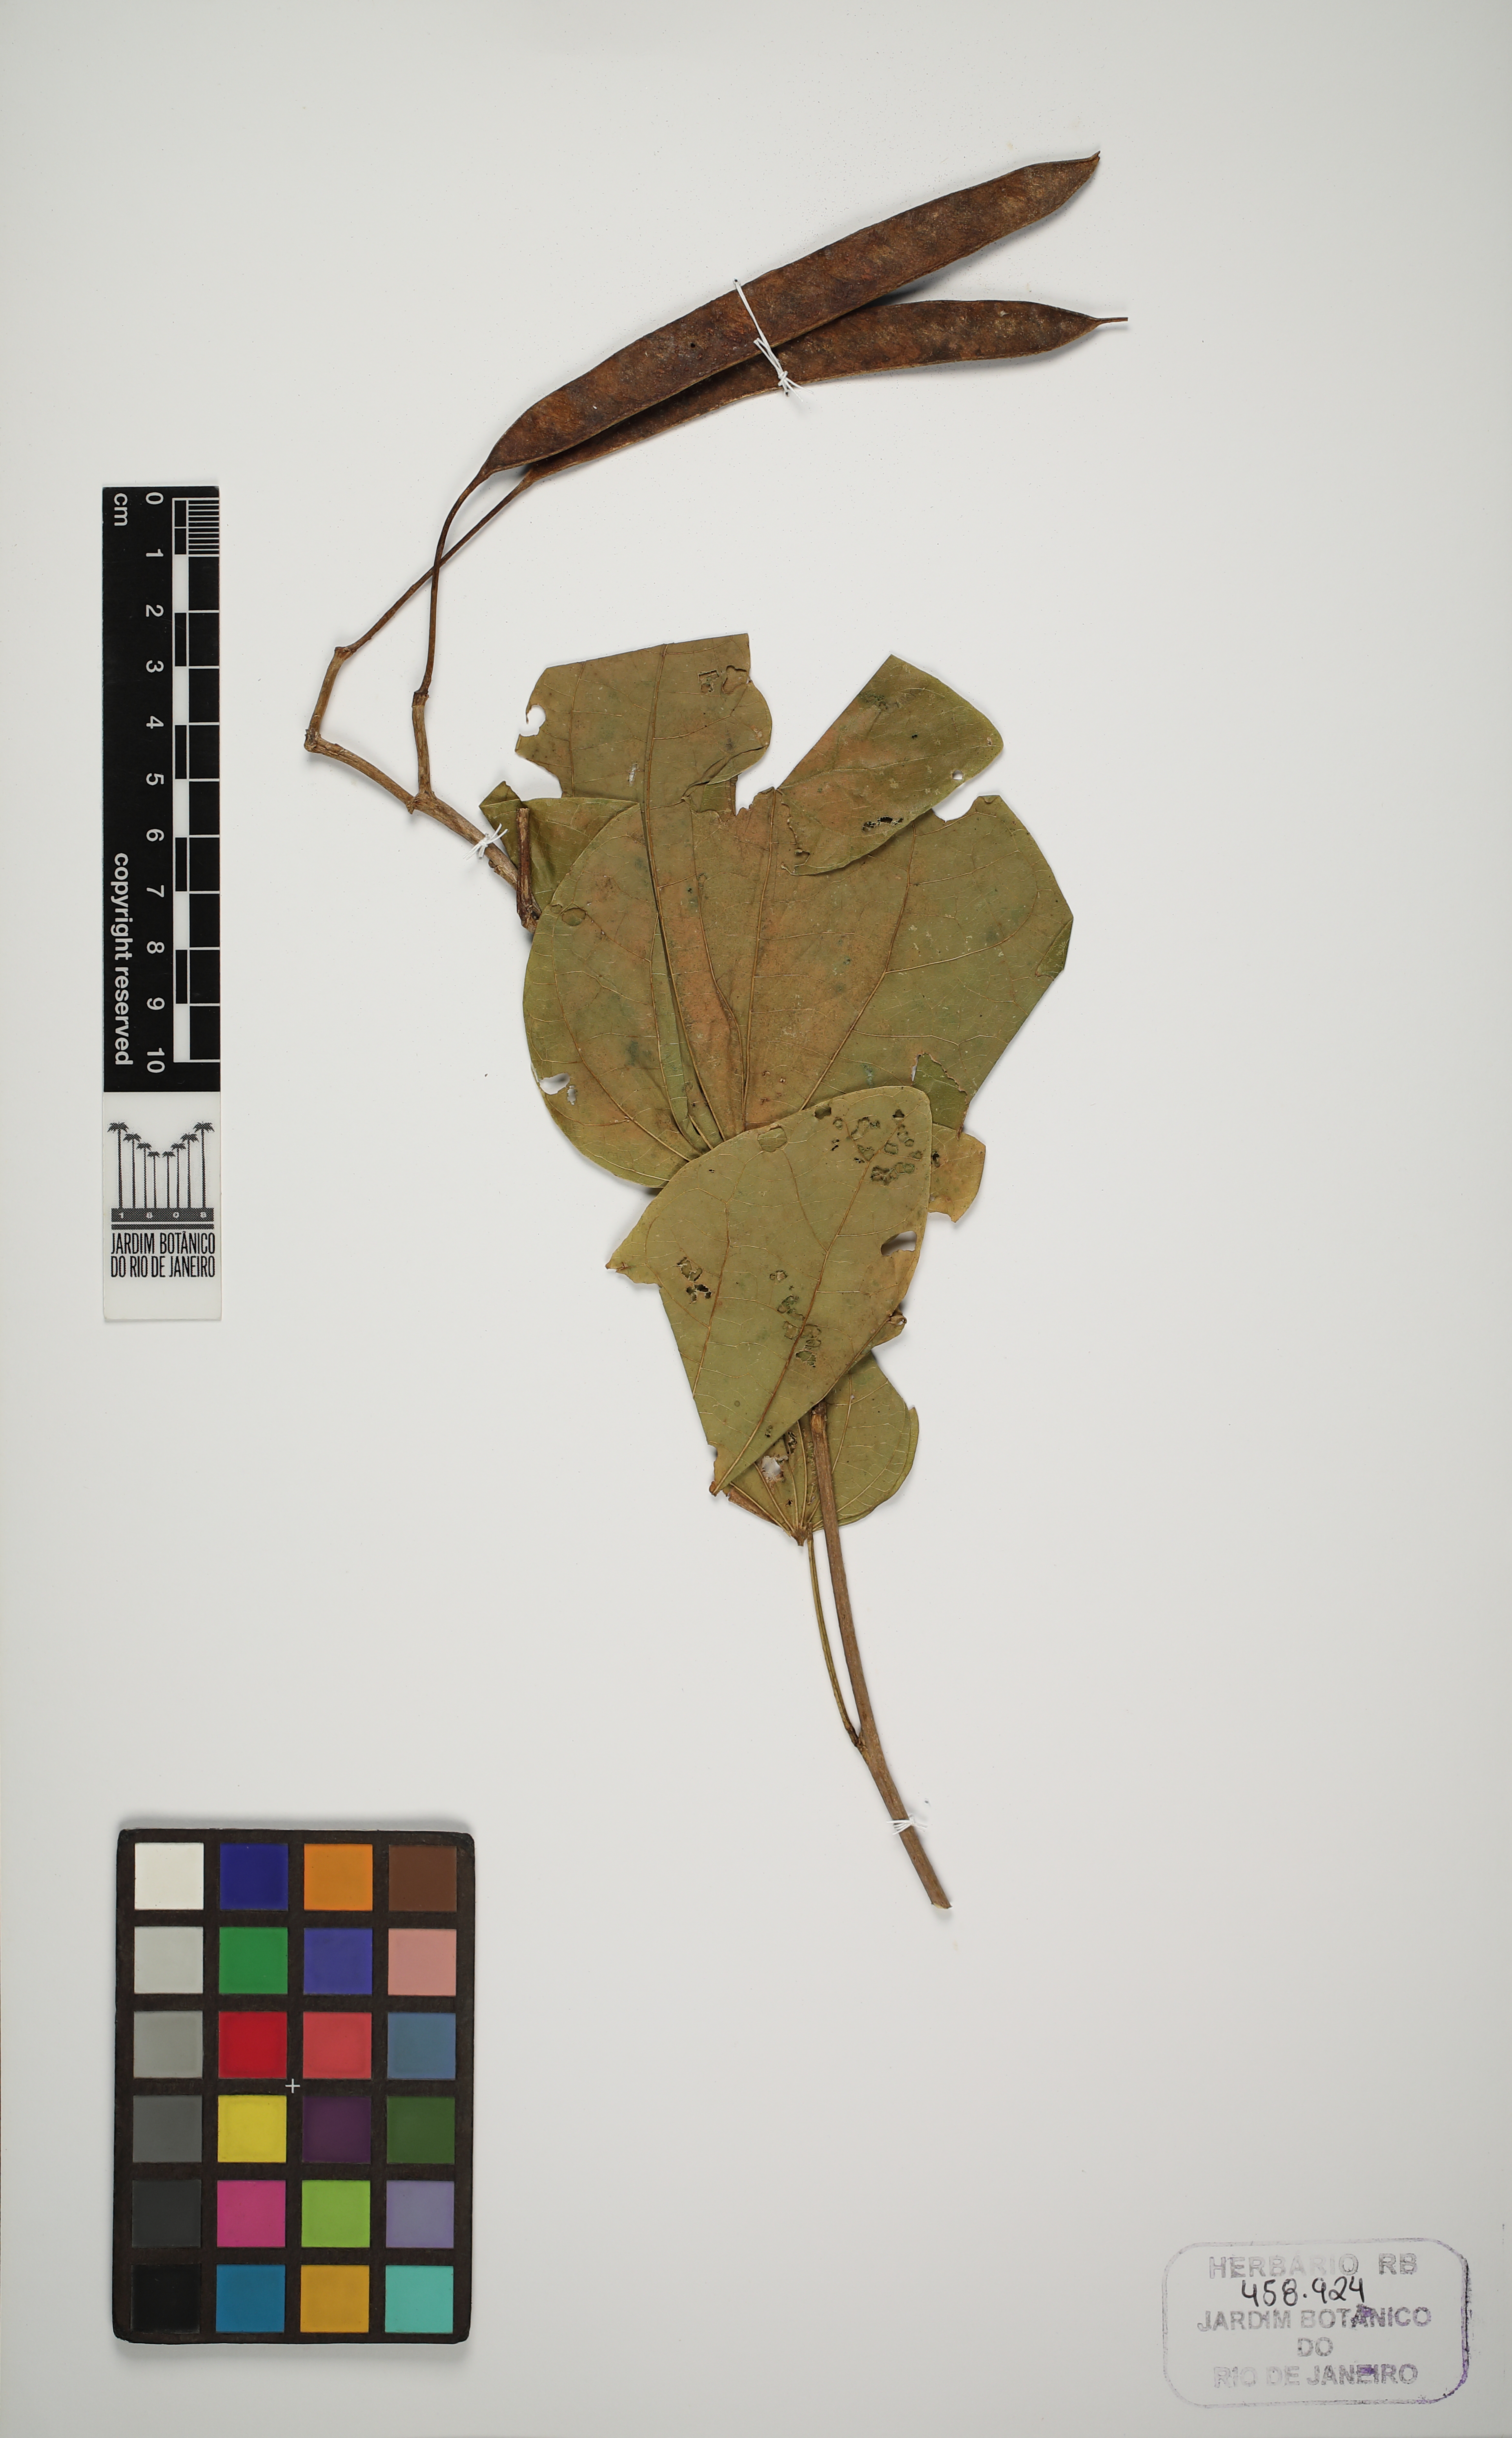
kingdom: Plantae
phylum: Tracheophyta
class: Magnoliopsida
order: Fabales
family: Fabaceae
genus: Bauhinia
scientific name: Bauhinia
